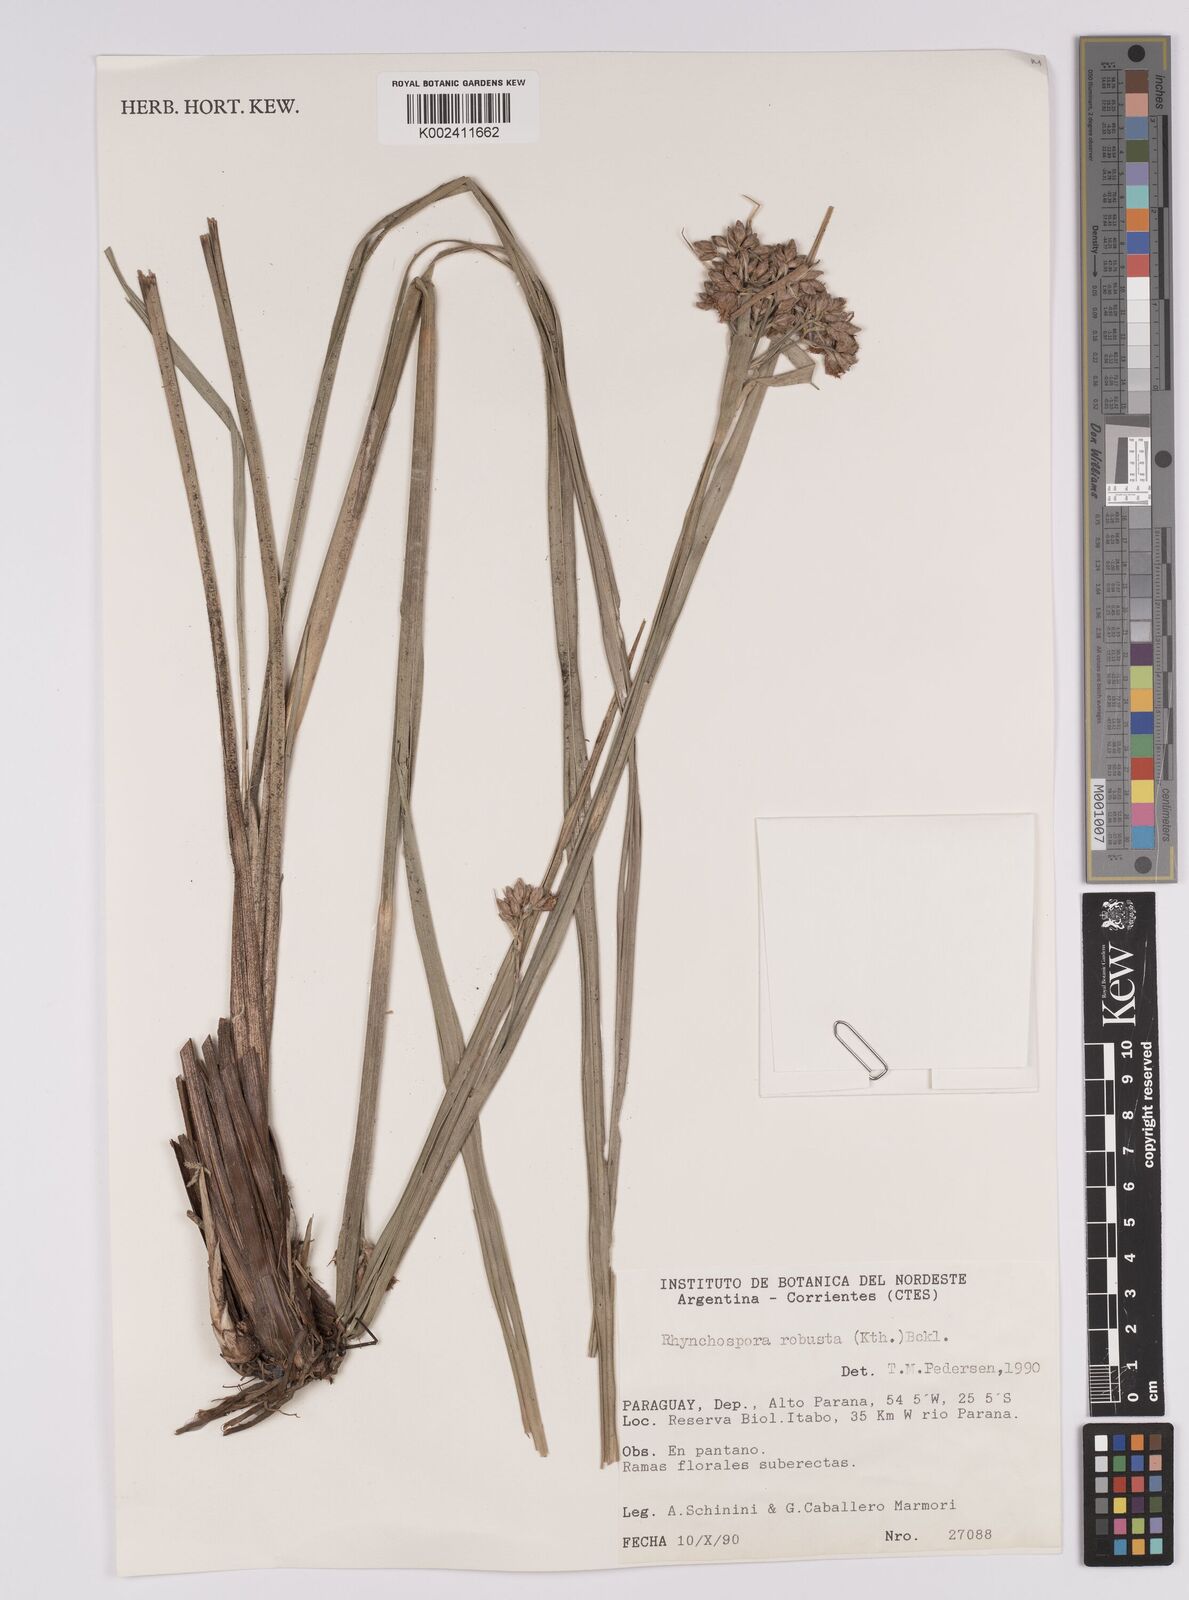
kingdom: Plantae
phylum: Tracheophyta
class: Liliopsida
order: Poales
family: Cyperaceae
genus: Rhynchospora
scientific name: Rhynchospora robusta
